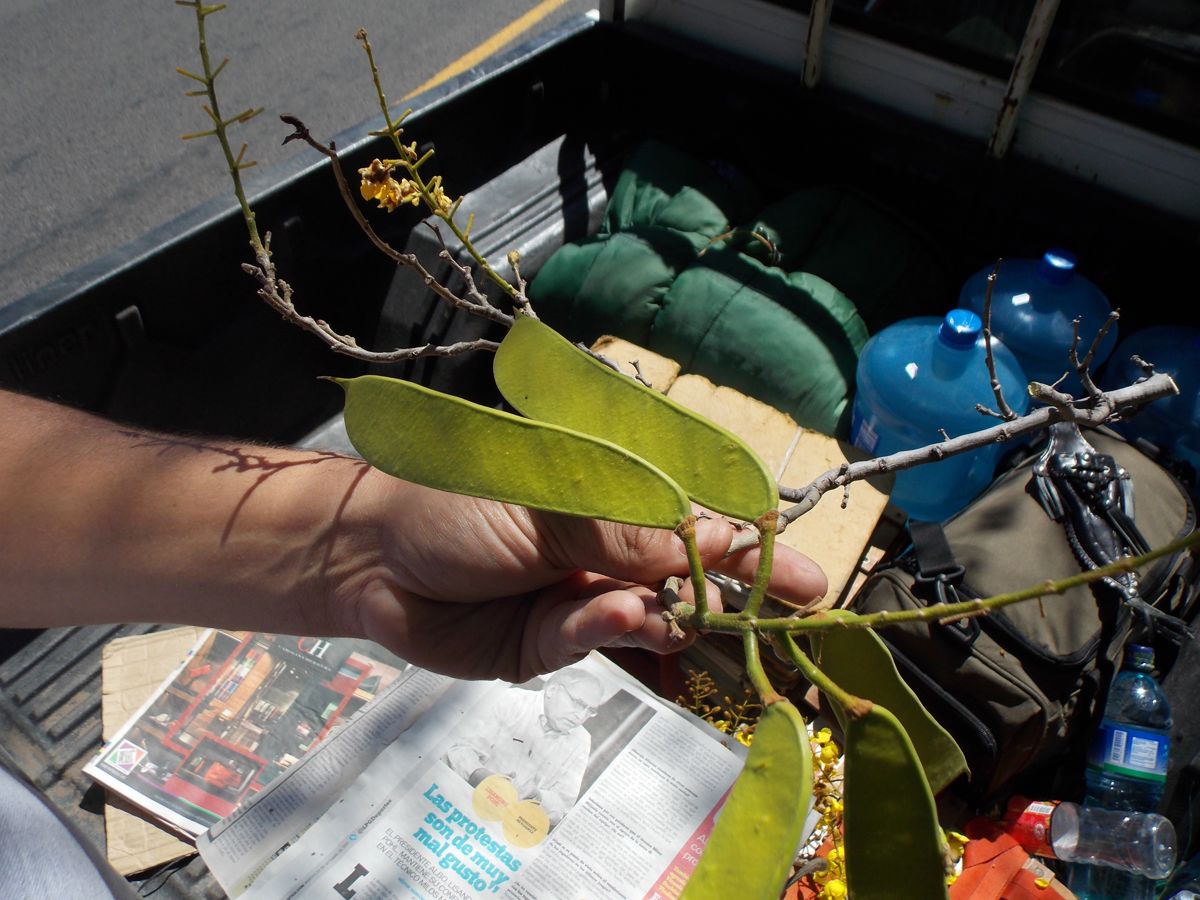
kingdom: Plantae
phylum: Tracheophyta
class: Magnoliopsida
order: Fabales
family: Fabaceae
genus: Cenostigma
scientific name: Cenostigma eriostachys
